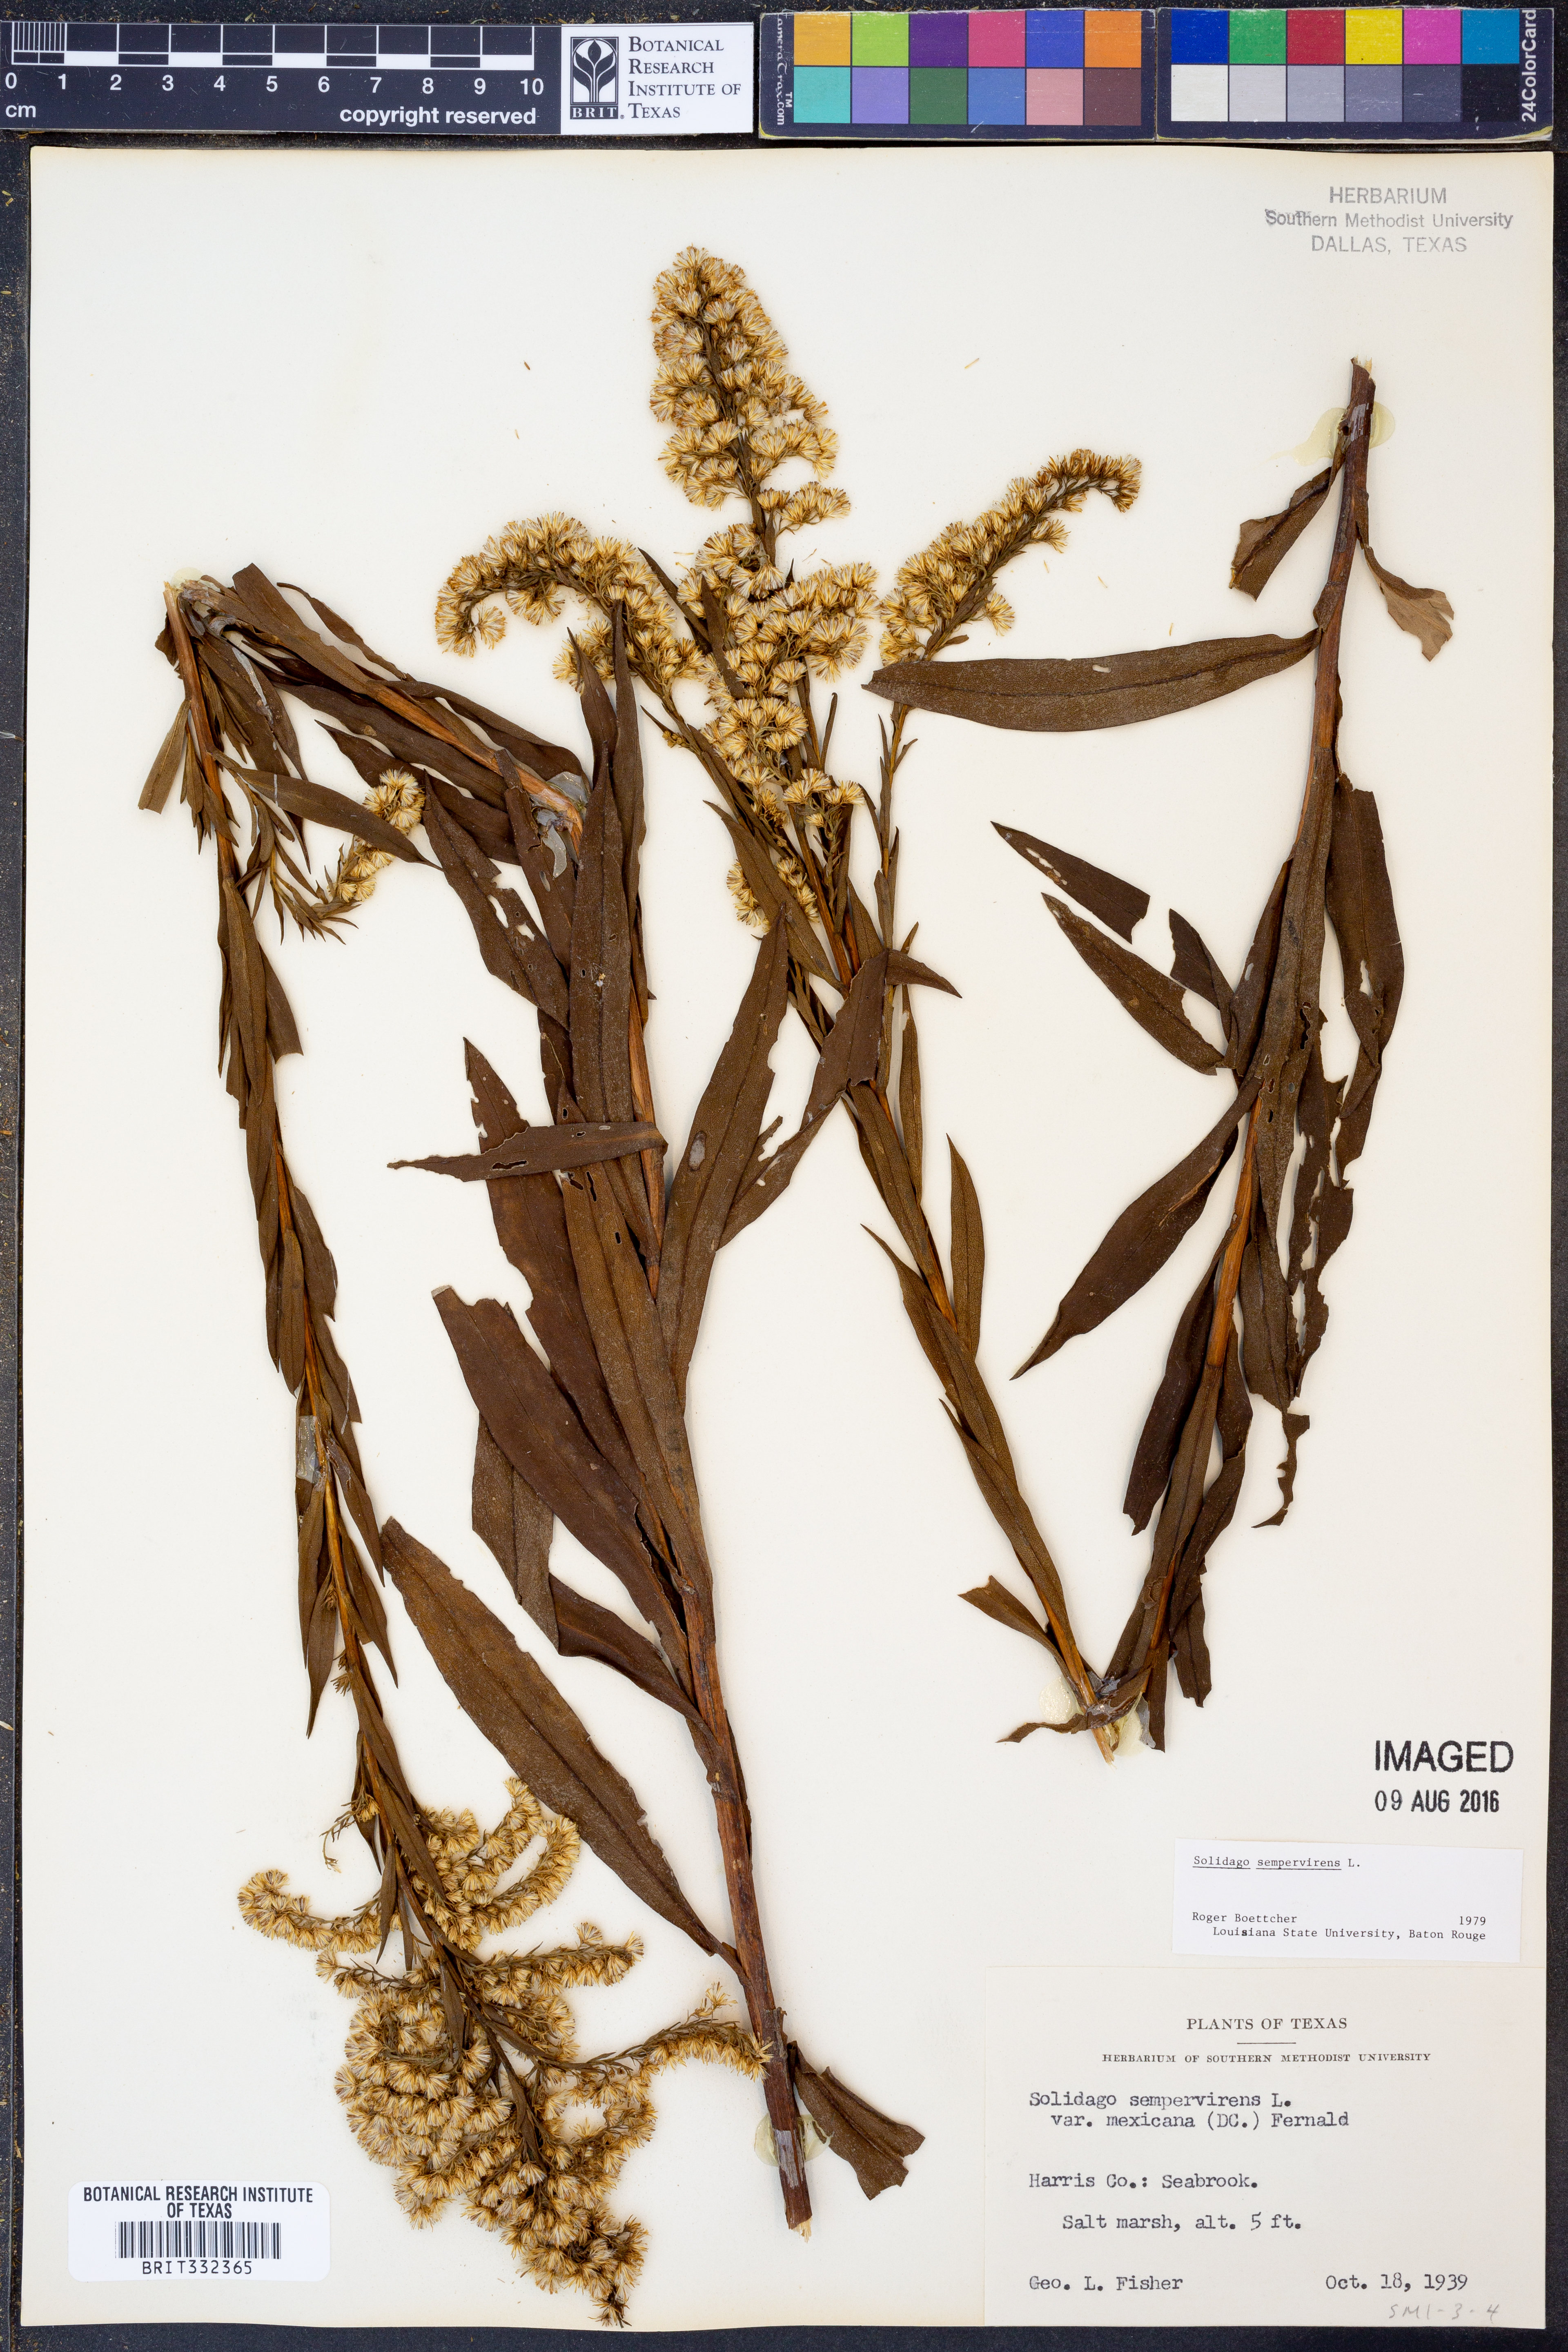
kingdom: Plantae
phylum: Tracheophyta
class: Magnoliopsida
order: Asterales
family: Asteraceae
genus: Solidago
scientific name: Solidago sempervirens
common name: Salt-marsh goldenrod
